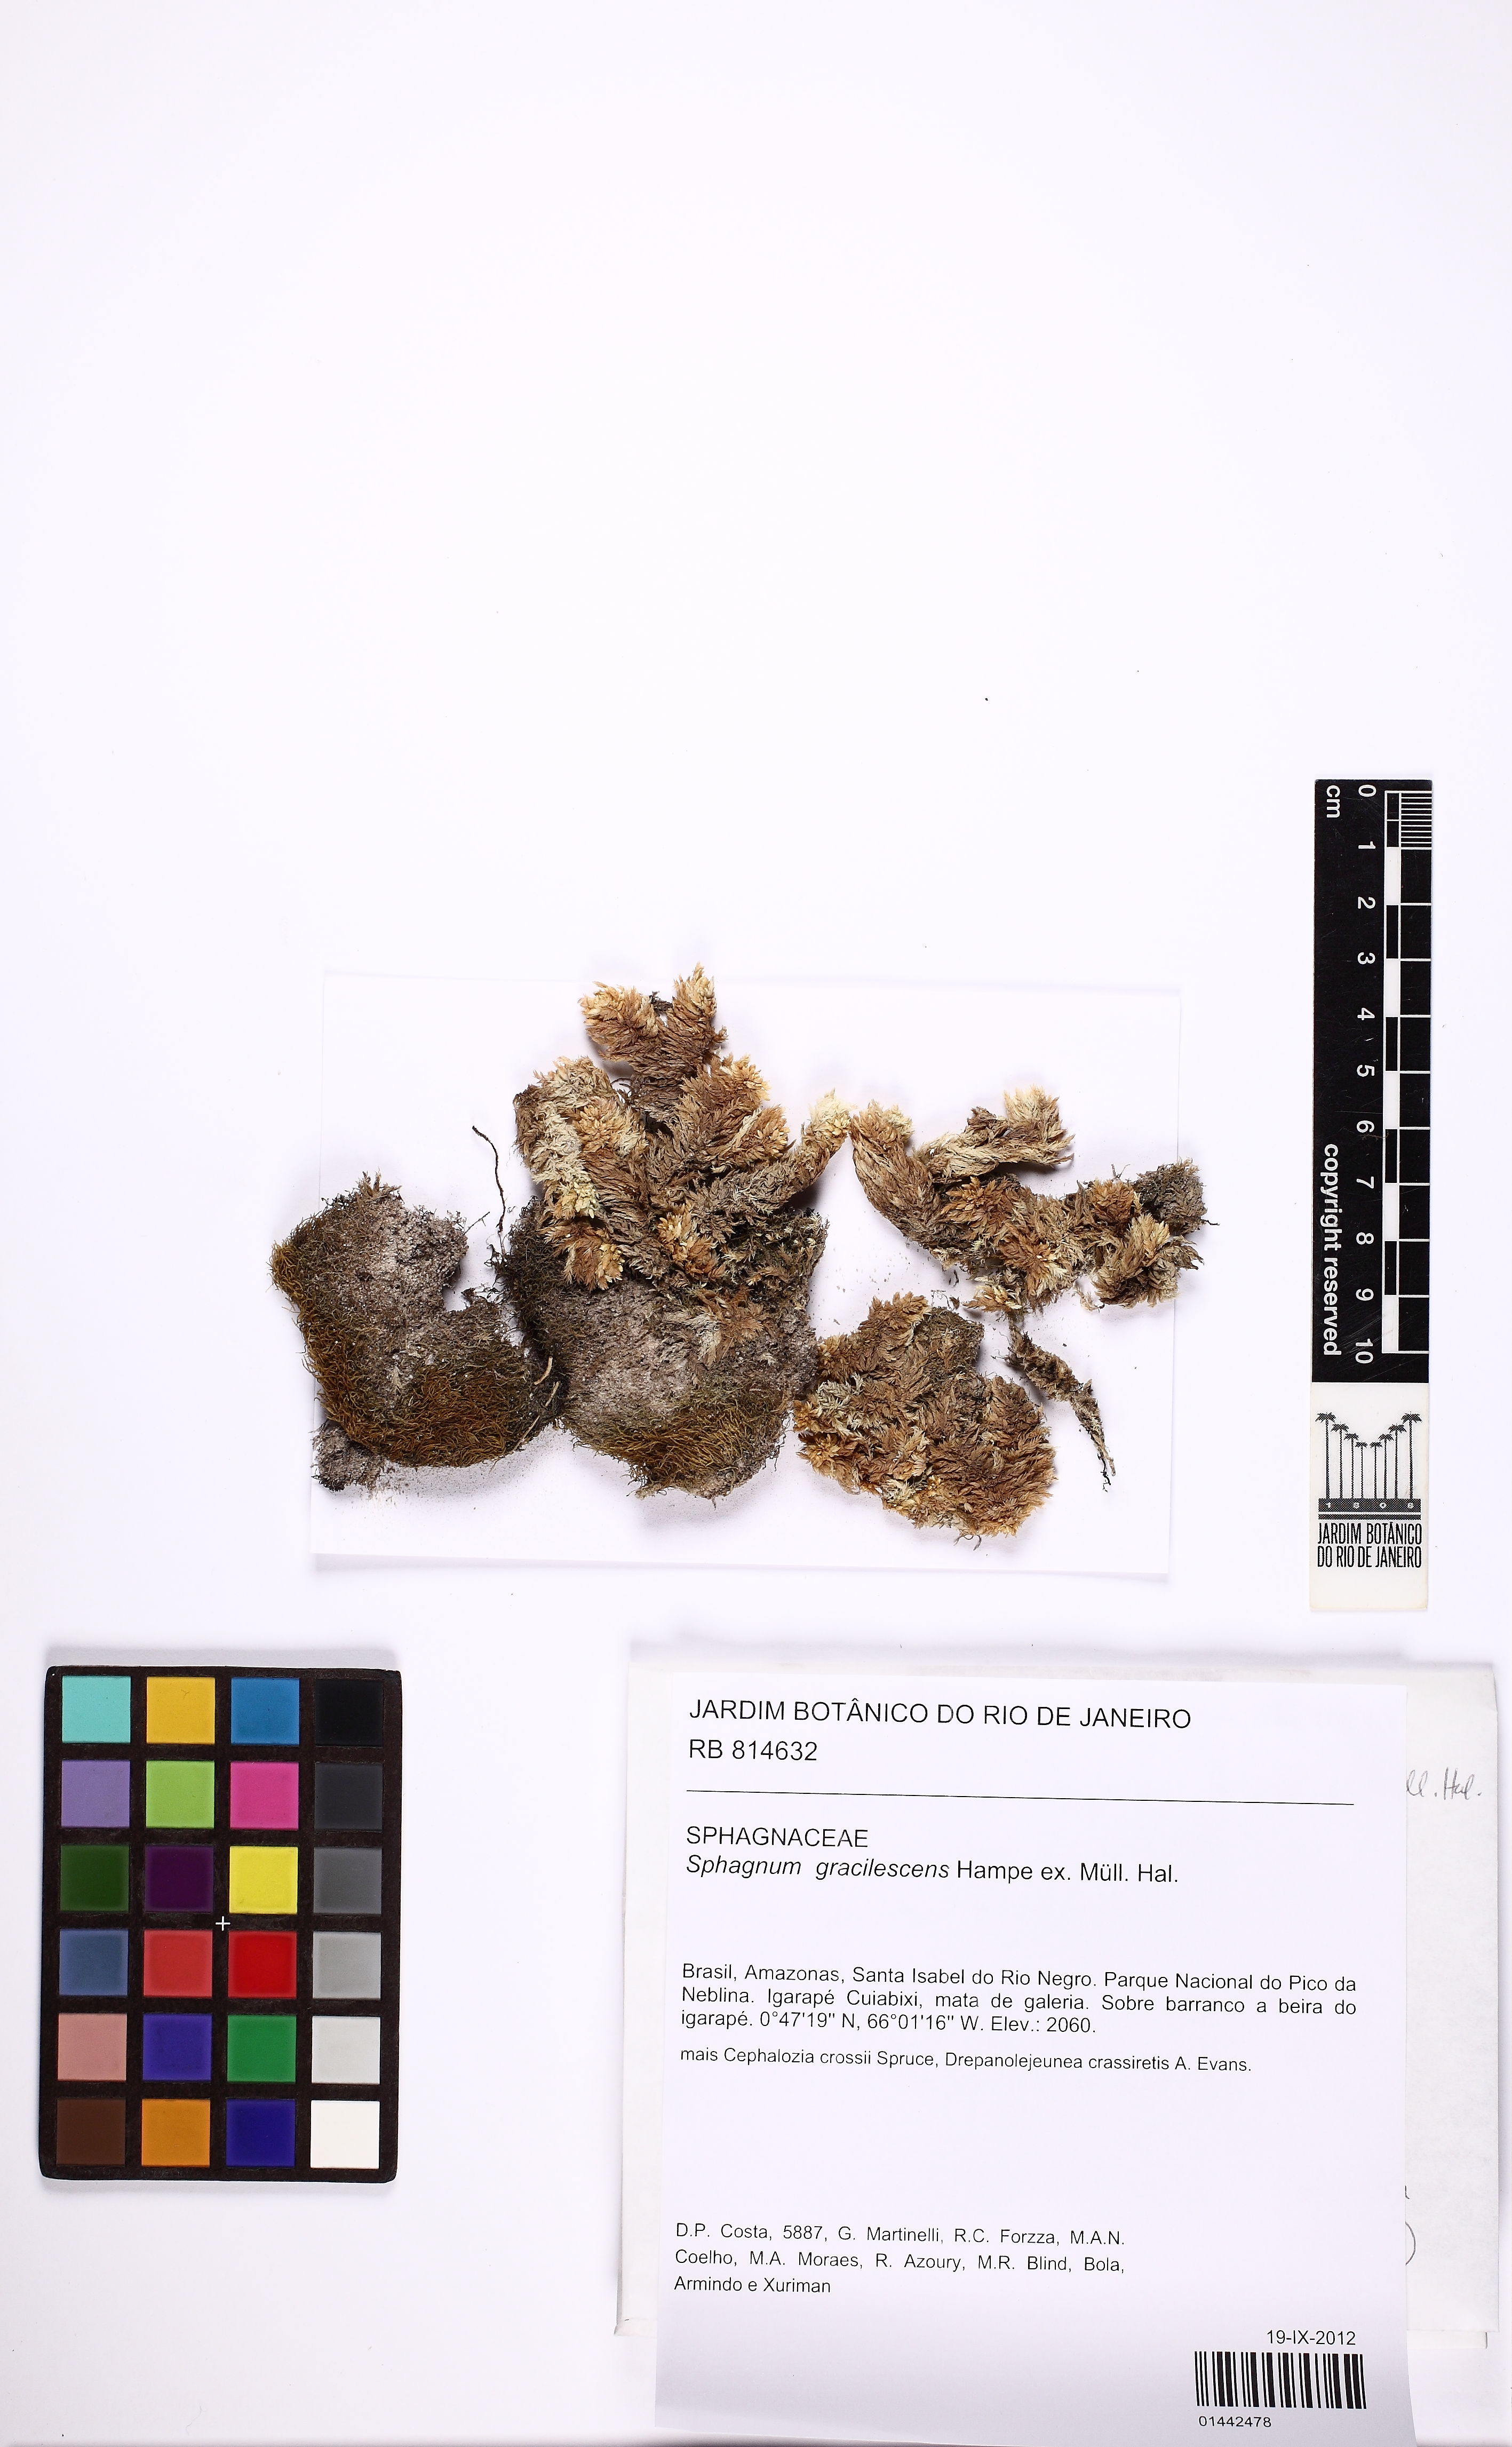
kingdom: Plantae
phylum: Bryophyta
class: Sphagnopsida
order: Sphagnales
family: Sphagnaceae
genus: Sphagnum
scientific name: Sphagnum gracilescens
